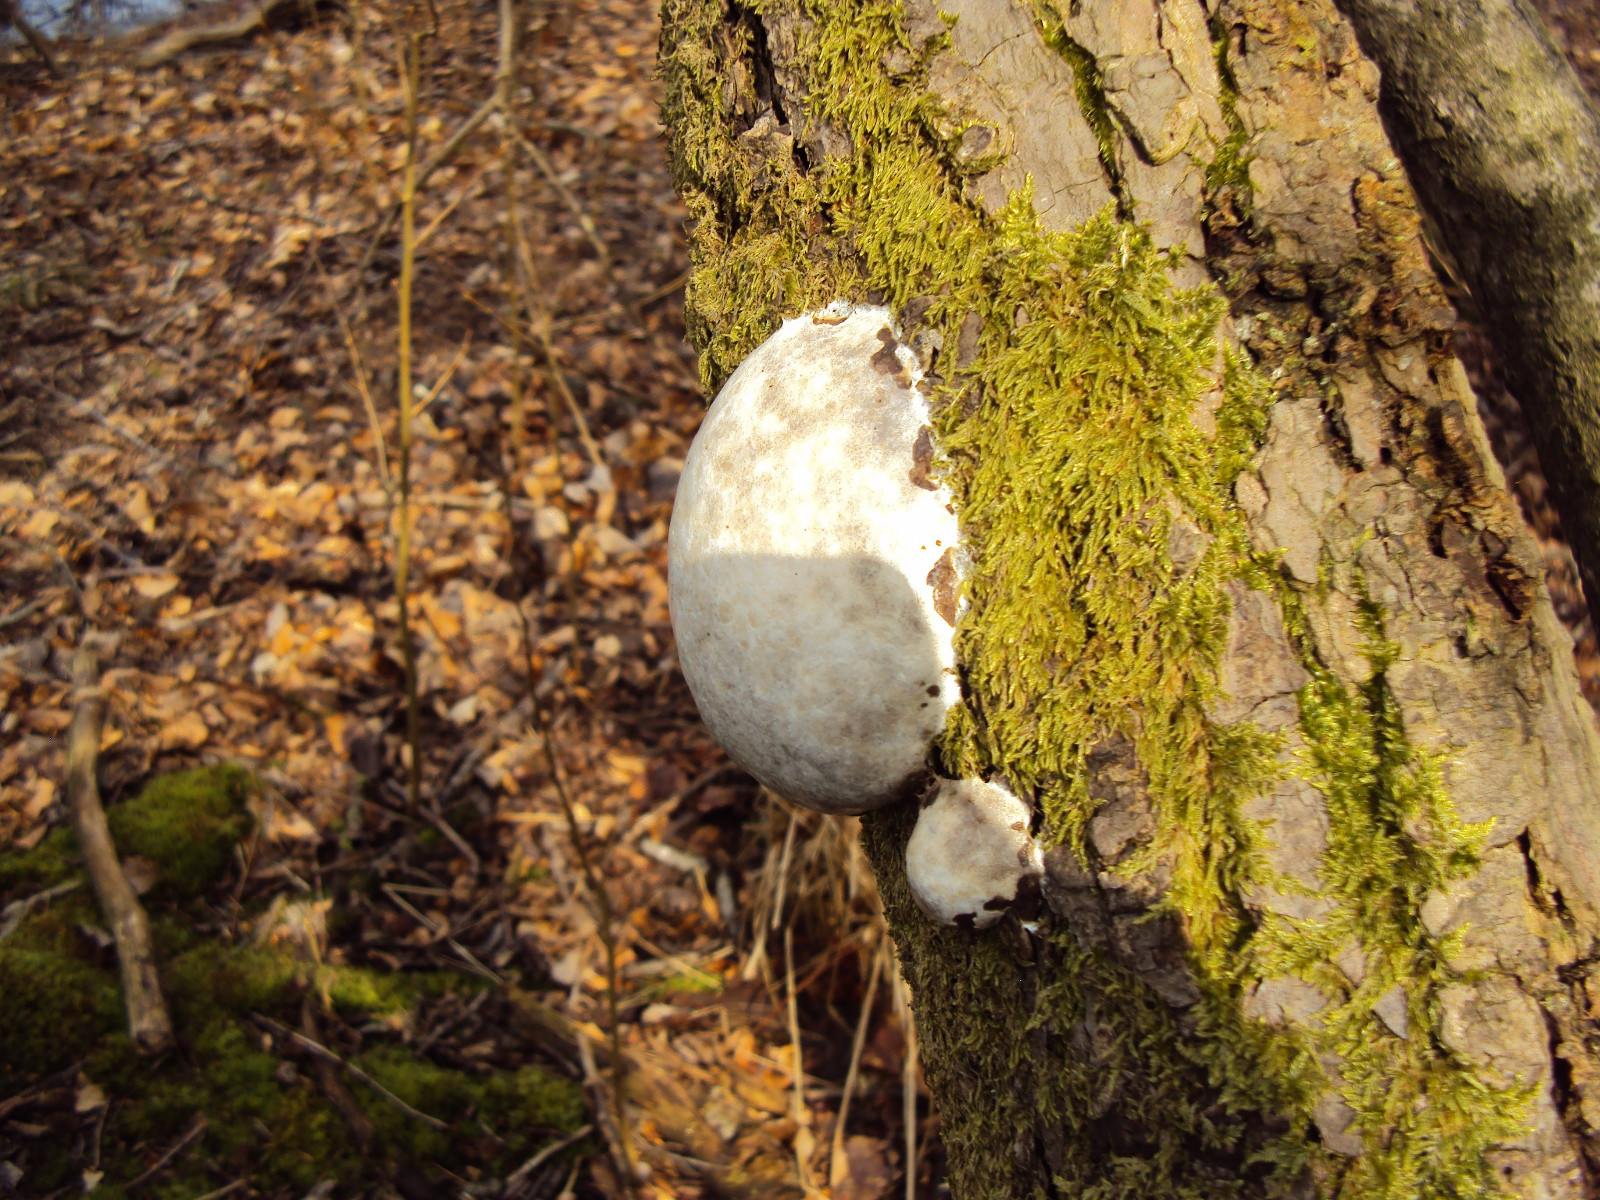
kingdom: Protozoa
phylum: Mycetozoa
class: Myxomycetes
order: Cribrariales
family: Tubiferaceae
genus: Reticularia
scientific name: Reticularia lycoperdon
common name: skinnende støvpude
